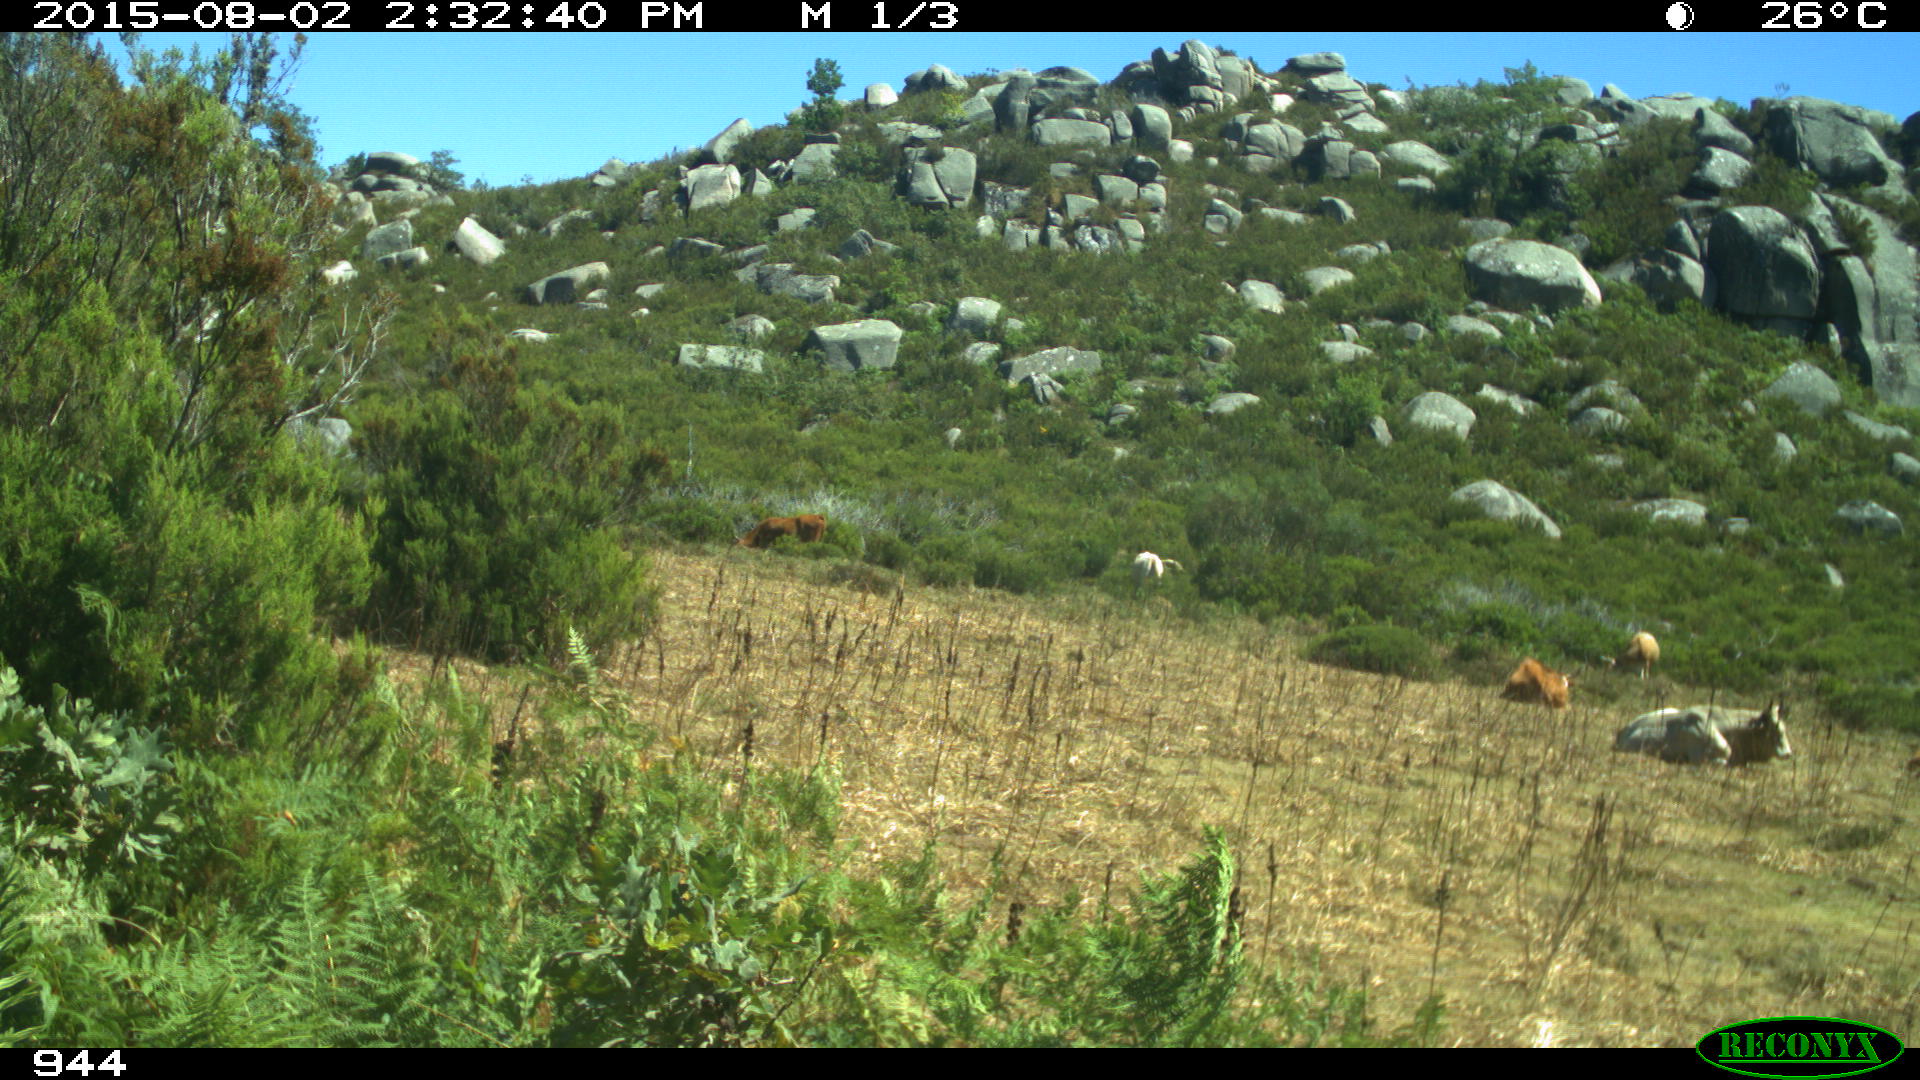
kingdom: Animalia
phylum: Chordata
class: Mammalia
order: Artiodactyla
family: Bovidae
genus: Bos
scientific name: Bos taurus
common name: Domesticated cattle
